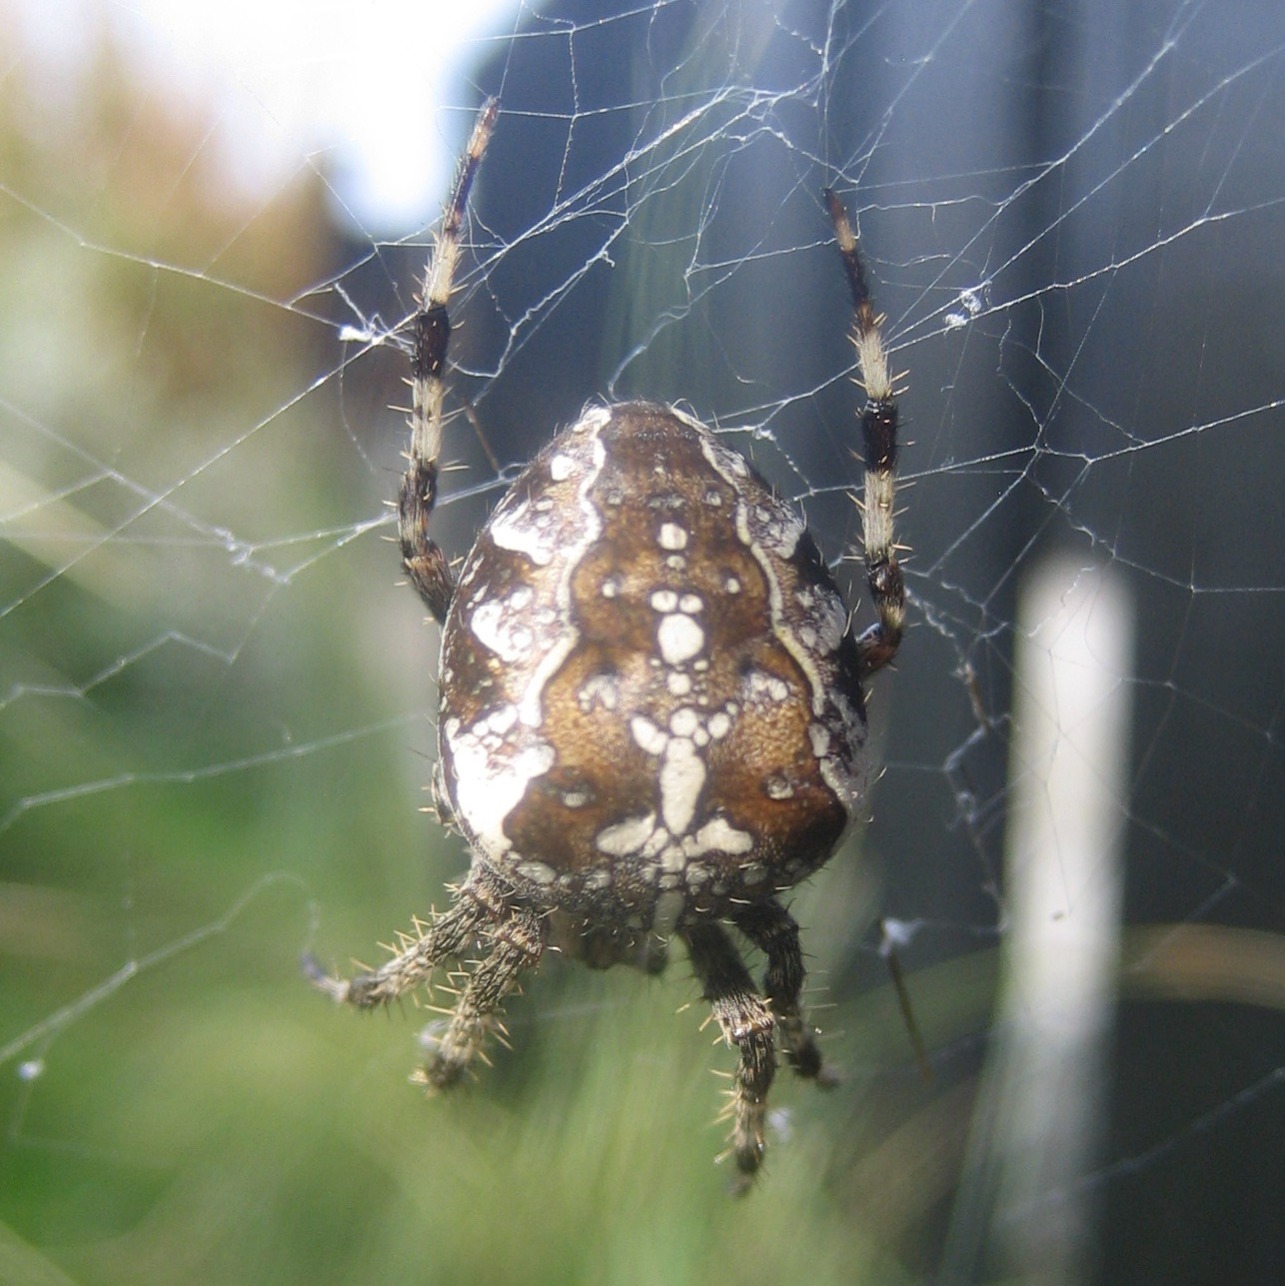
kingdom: Animalia
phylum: Arthropoda
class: Arachnida
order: Araneae
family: Araneidae
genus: Araneus
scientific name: Araneus diadematus
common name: Korsedderkop
